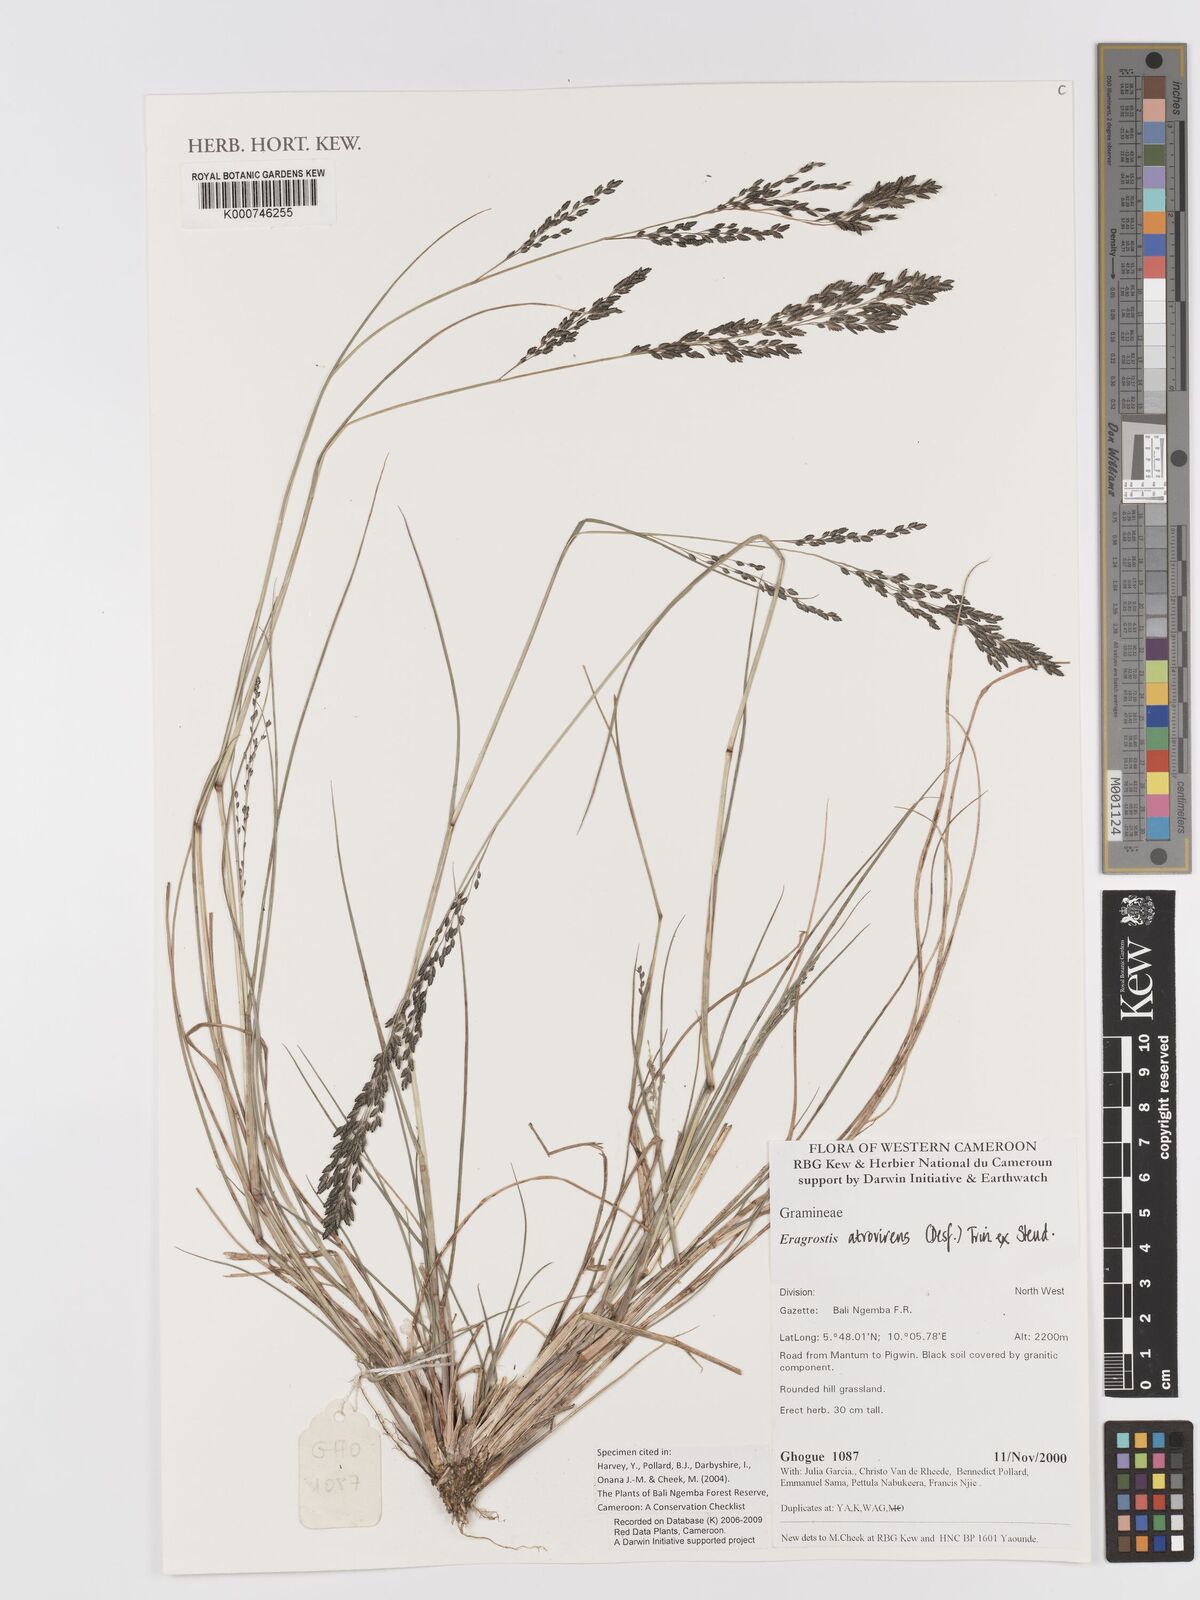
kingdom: Plantae
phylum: Tracheophyta
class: Liliopsida
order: Poales
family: Poaceae
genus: Eragrostis
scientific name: Eragrostis atrovirens
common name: Thalia lovegrass
